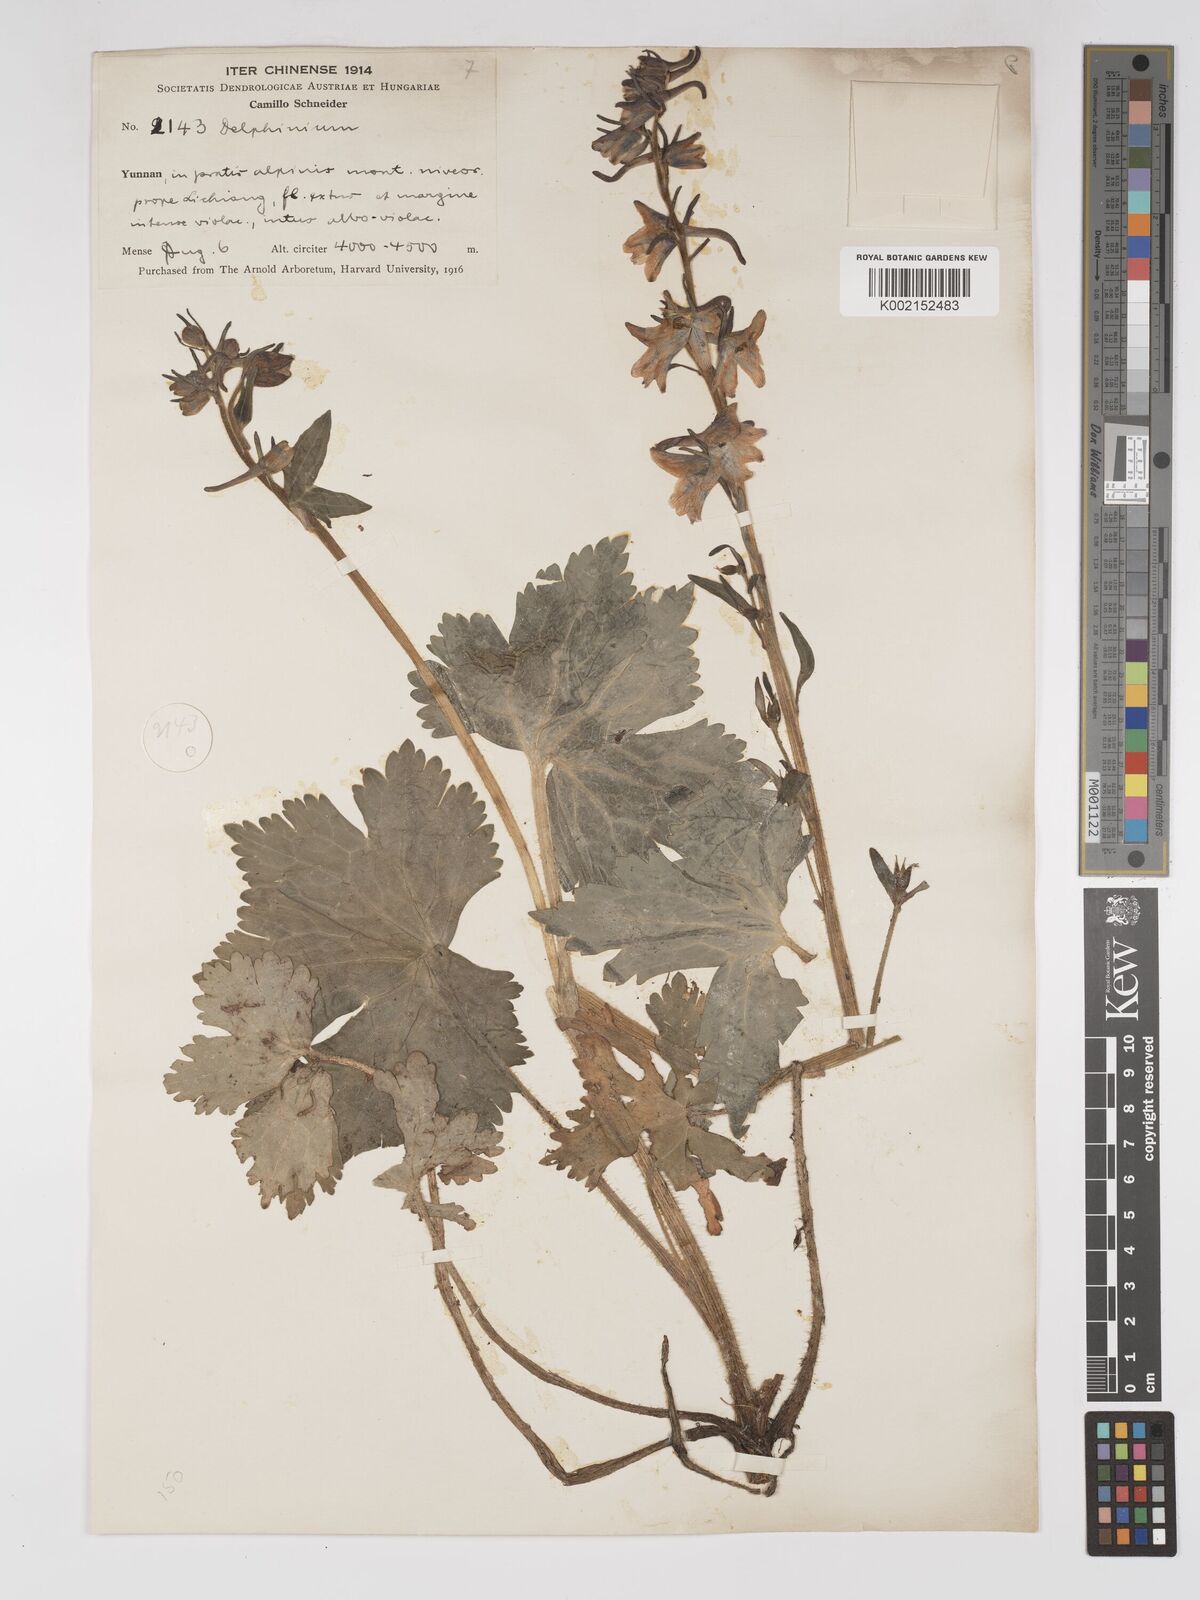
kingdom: Plantae
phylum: Tracheophyta
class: Magnoliopsida
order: Ranunculales
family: Ranunculaceae
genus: Delphinium
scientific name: Delphinium delavayi
